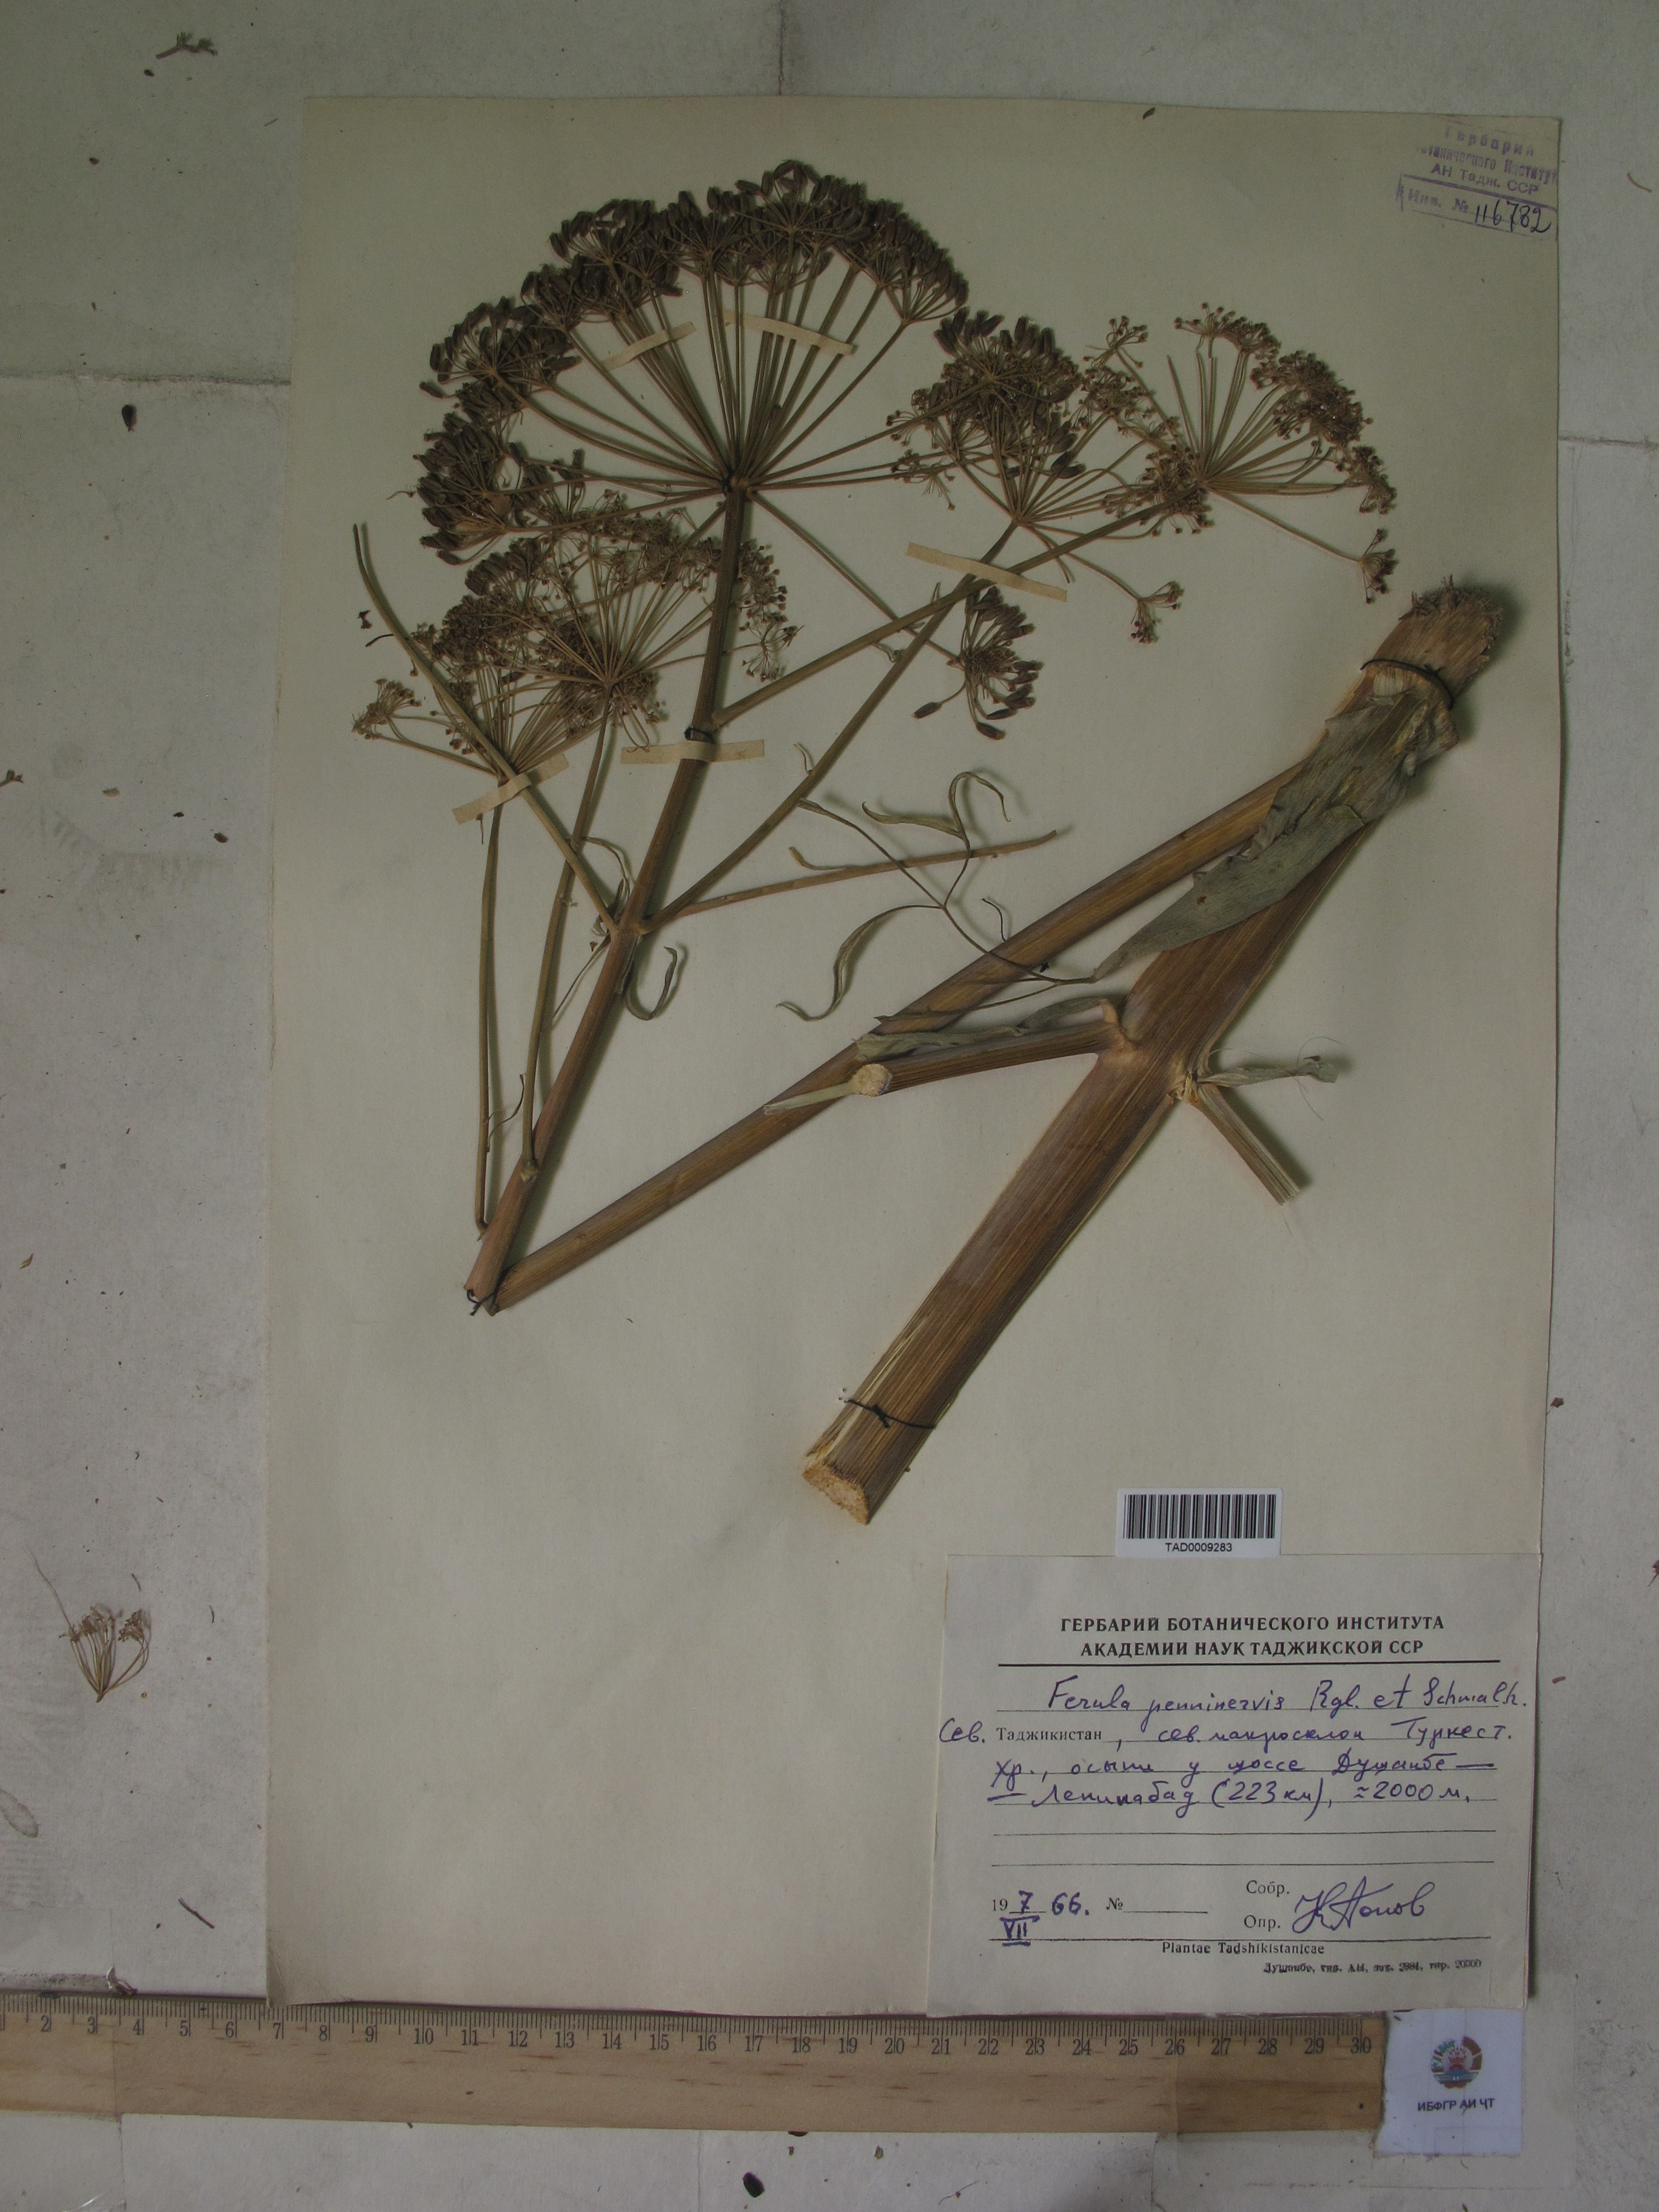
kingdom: Plantae
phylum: Tracheophyta
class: Magnoliopsida
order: Apiales
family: Apiaceae
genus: Ferula
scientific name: Ferula
